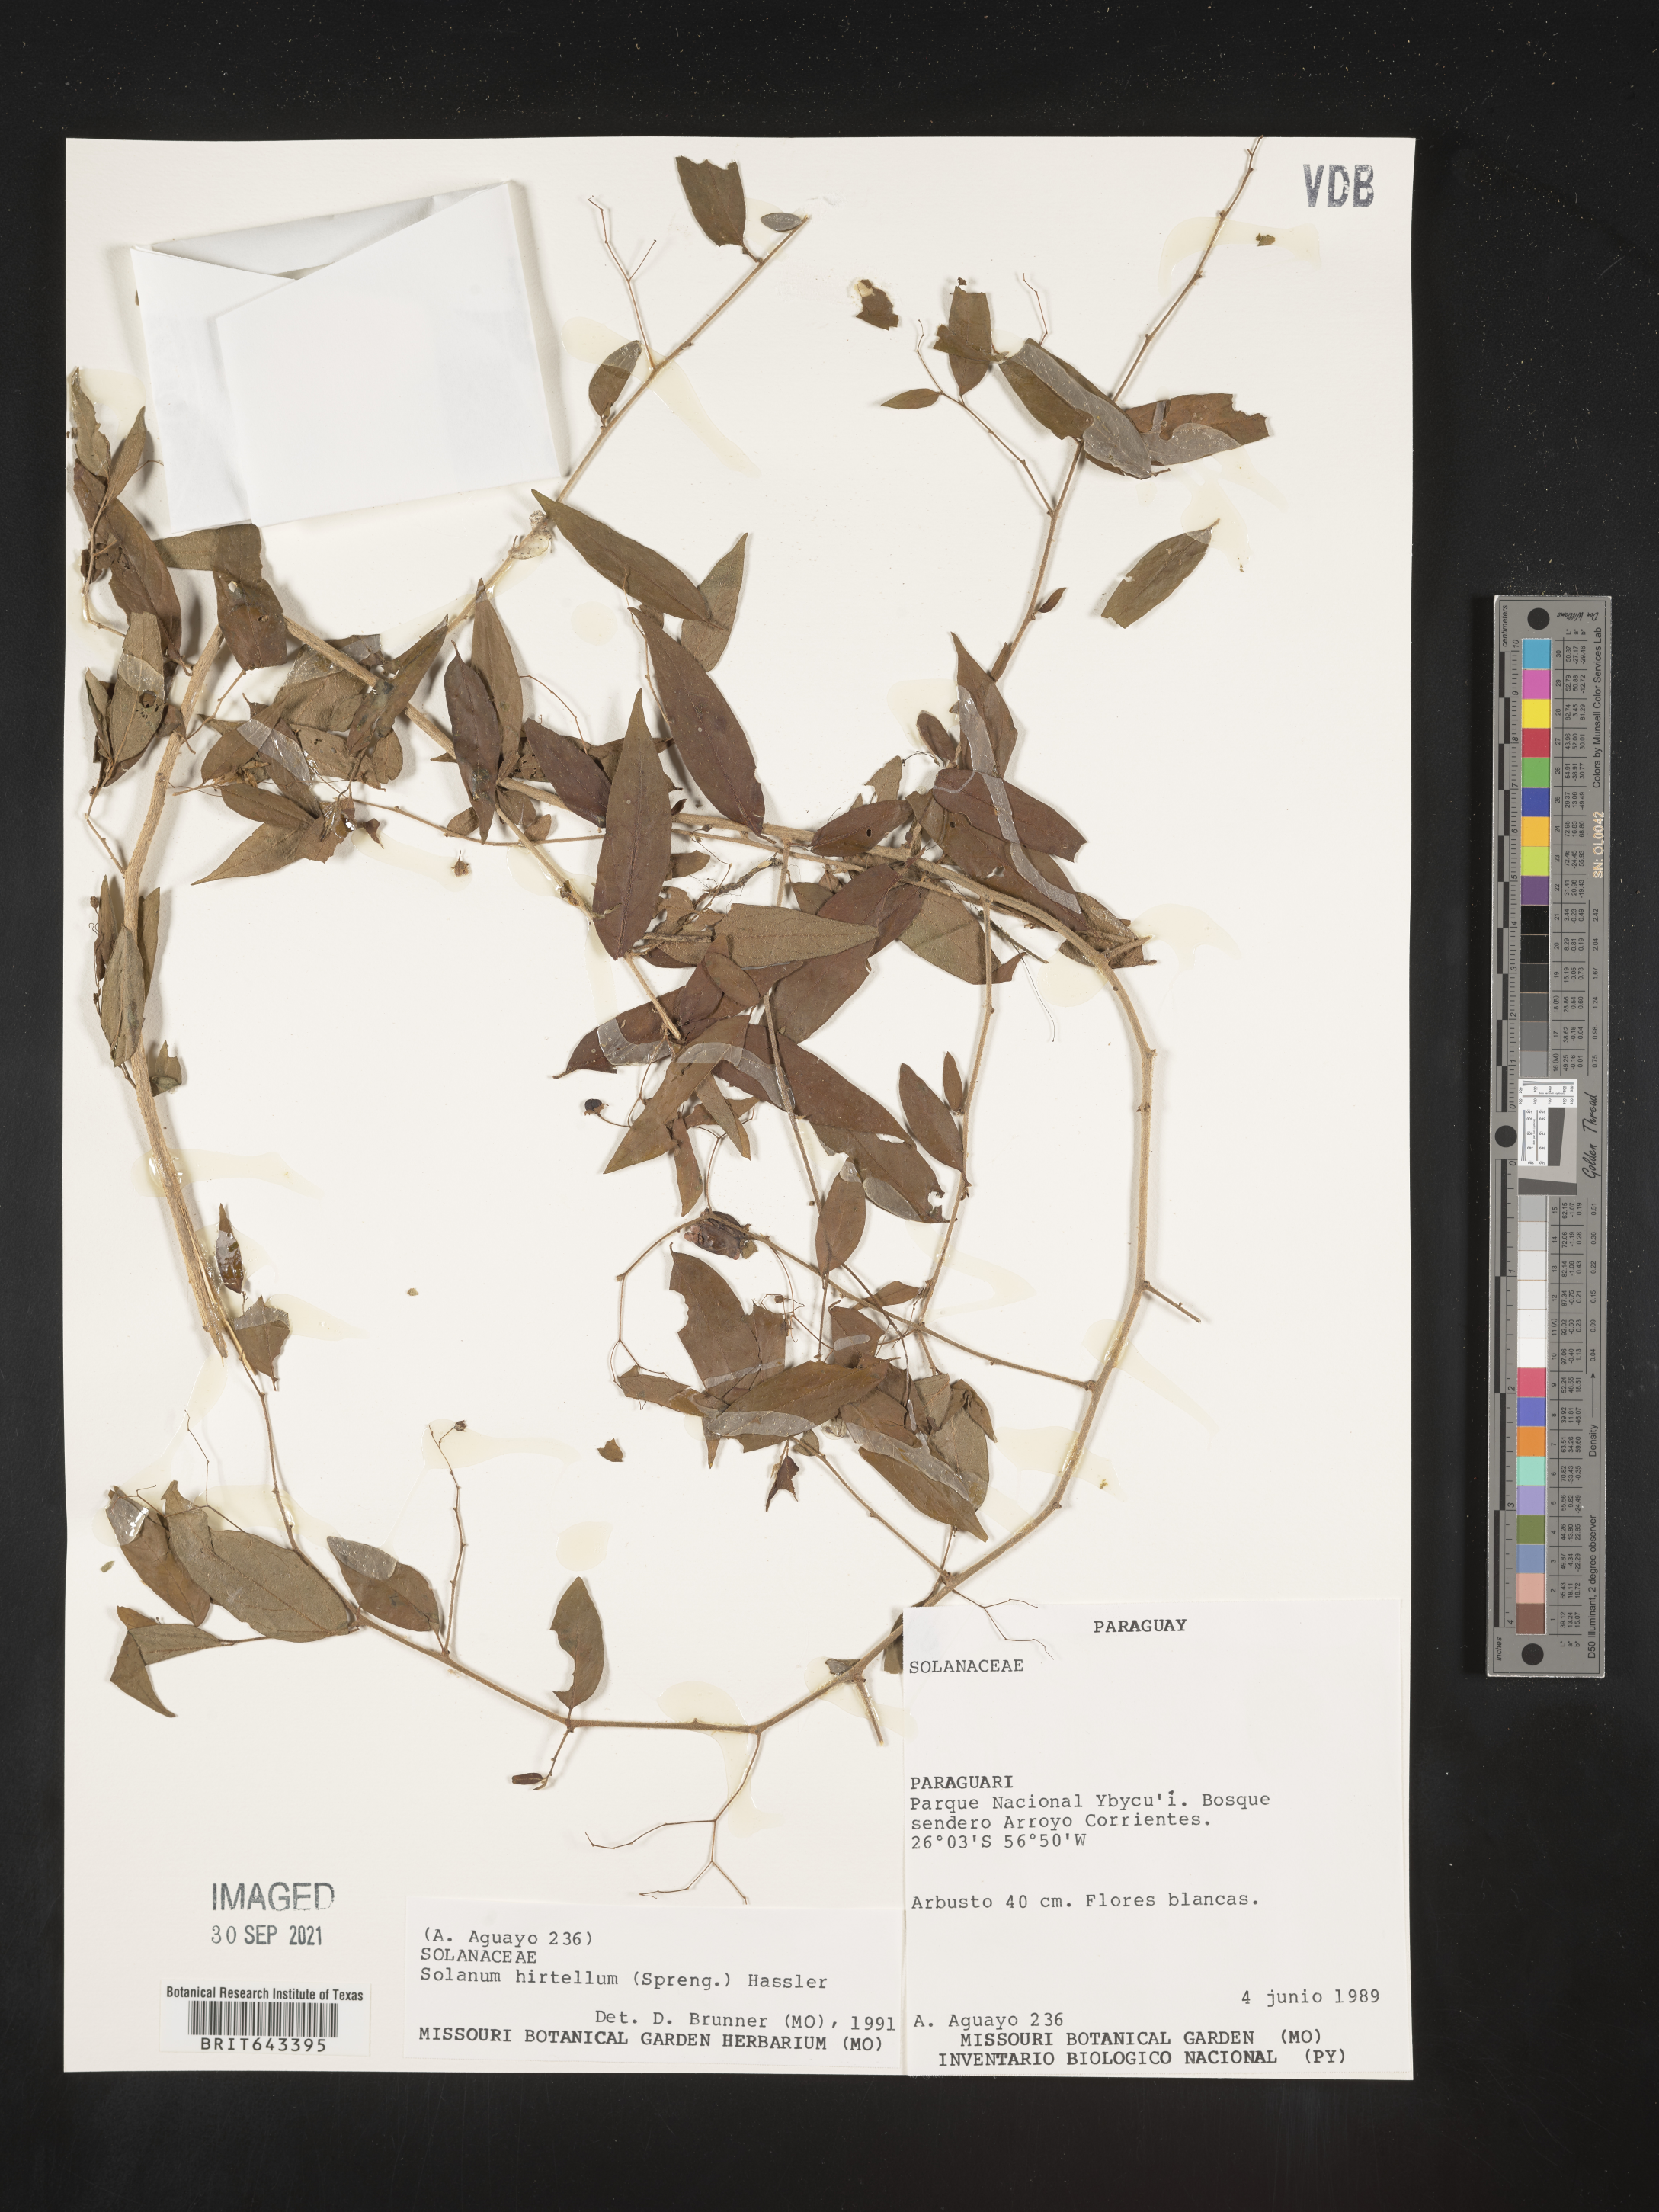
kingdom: Plantae
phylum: Tracheophyta
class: Magnoliopsida
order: Solanales
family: Solanaceae
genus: Solanum
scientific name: Solanum
